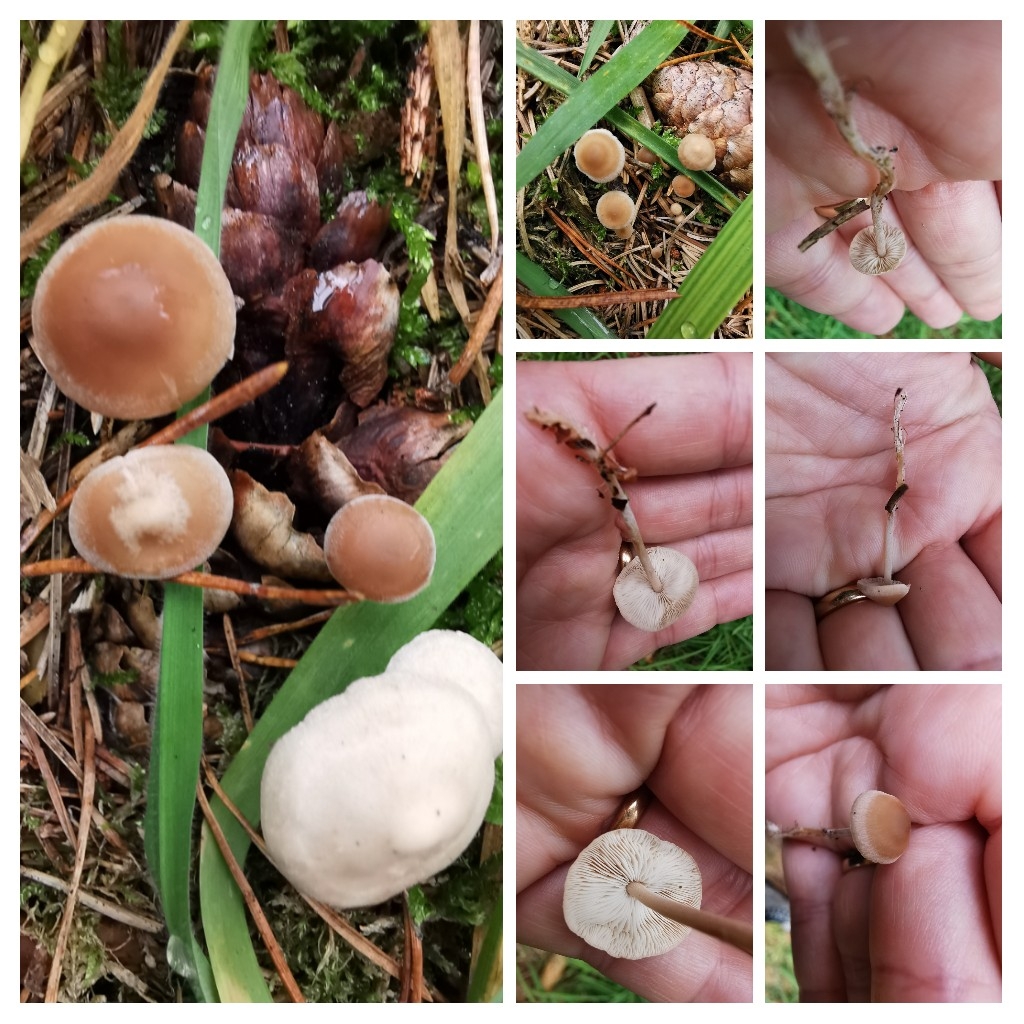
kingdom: Fungi
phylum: Basidiomycota
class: Agaricomycetes
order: Agaricales
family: Marasmiaceae
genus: Baeospora
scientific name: Baeospora myosura
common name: koglebruskhat
